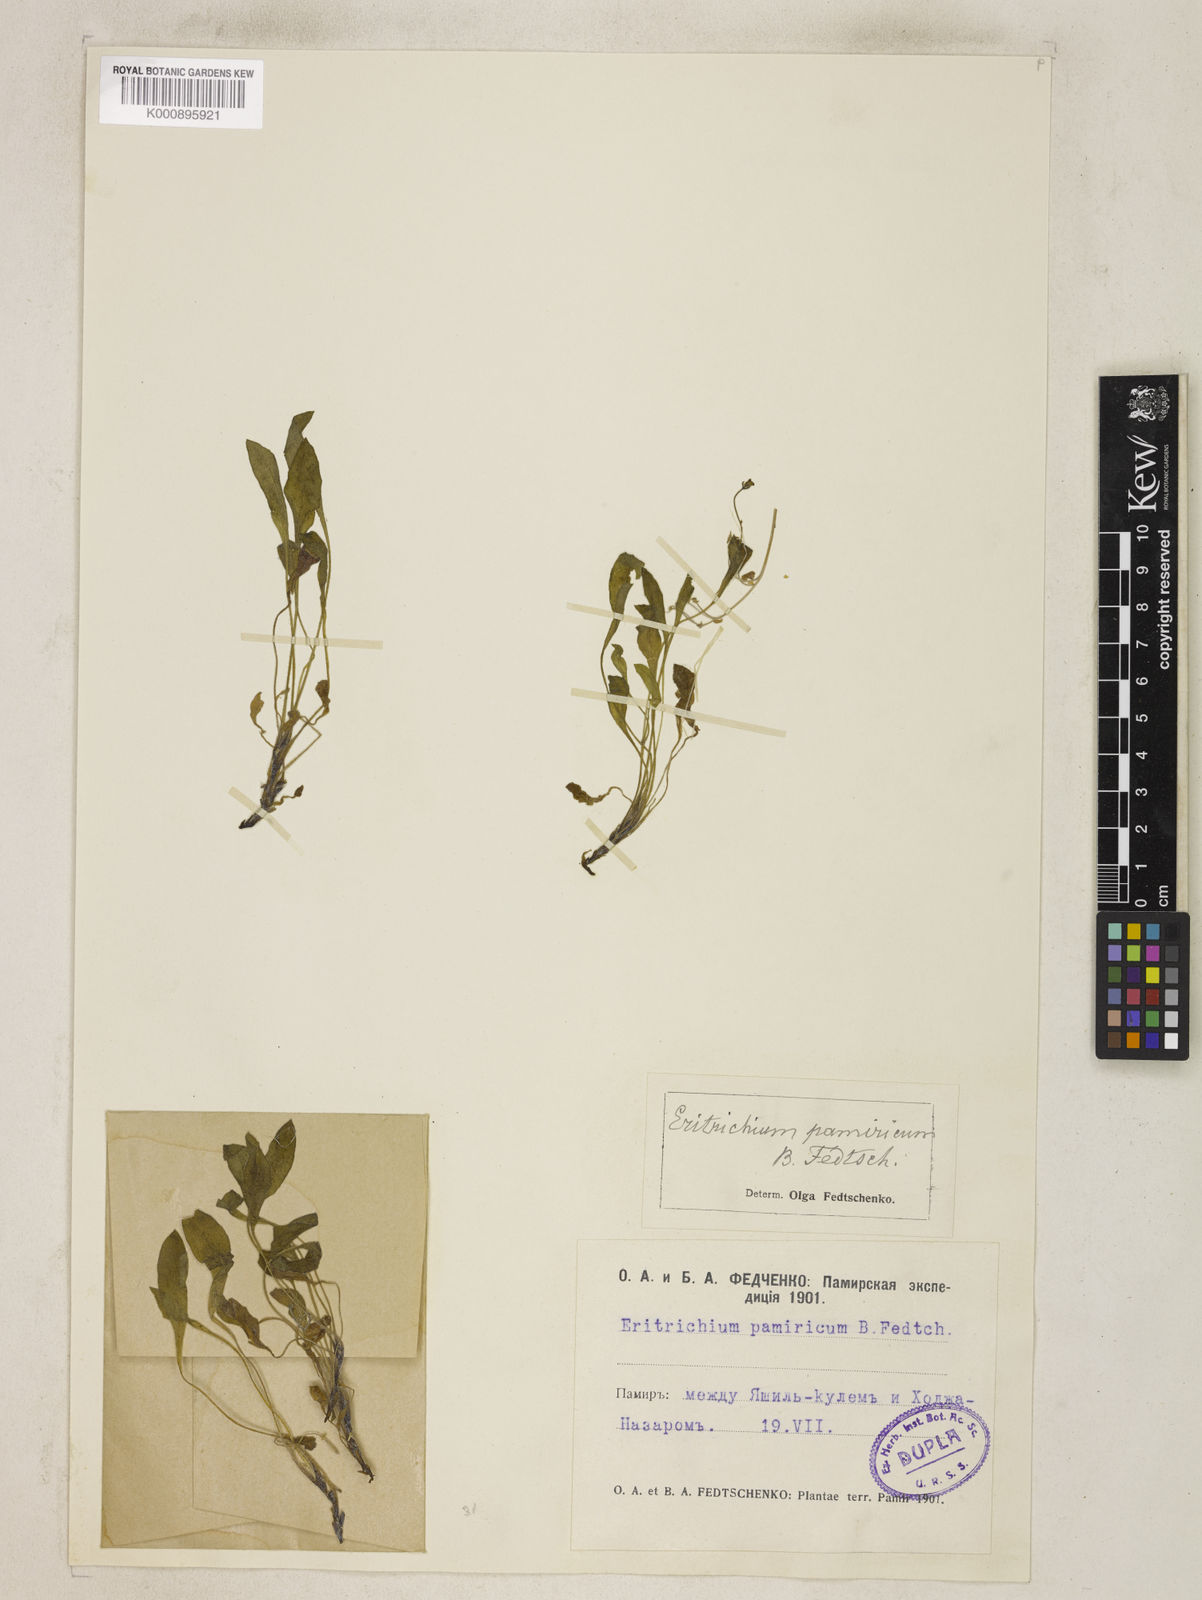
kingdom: Plantae
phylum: Tracheophyta
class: Magnoliopsida
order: Boraginales
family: Boraginaceae
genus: Eritrichium
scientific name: Eritrichium pamiricum
